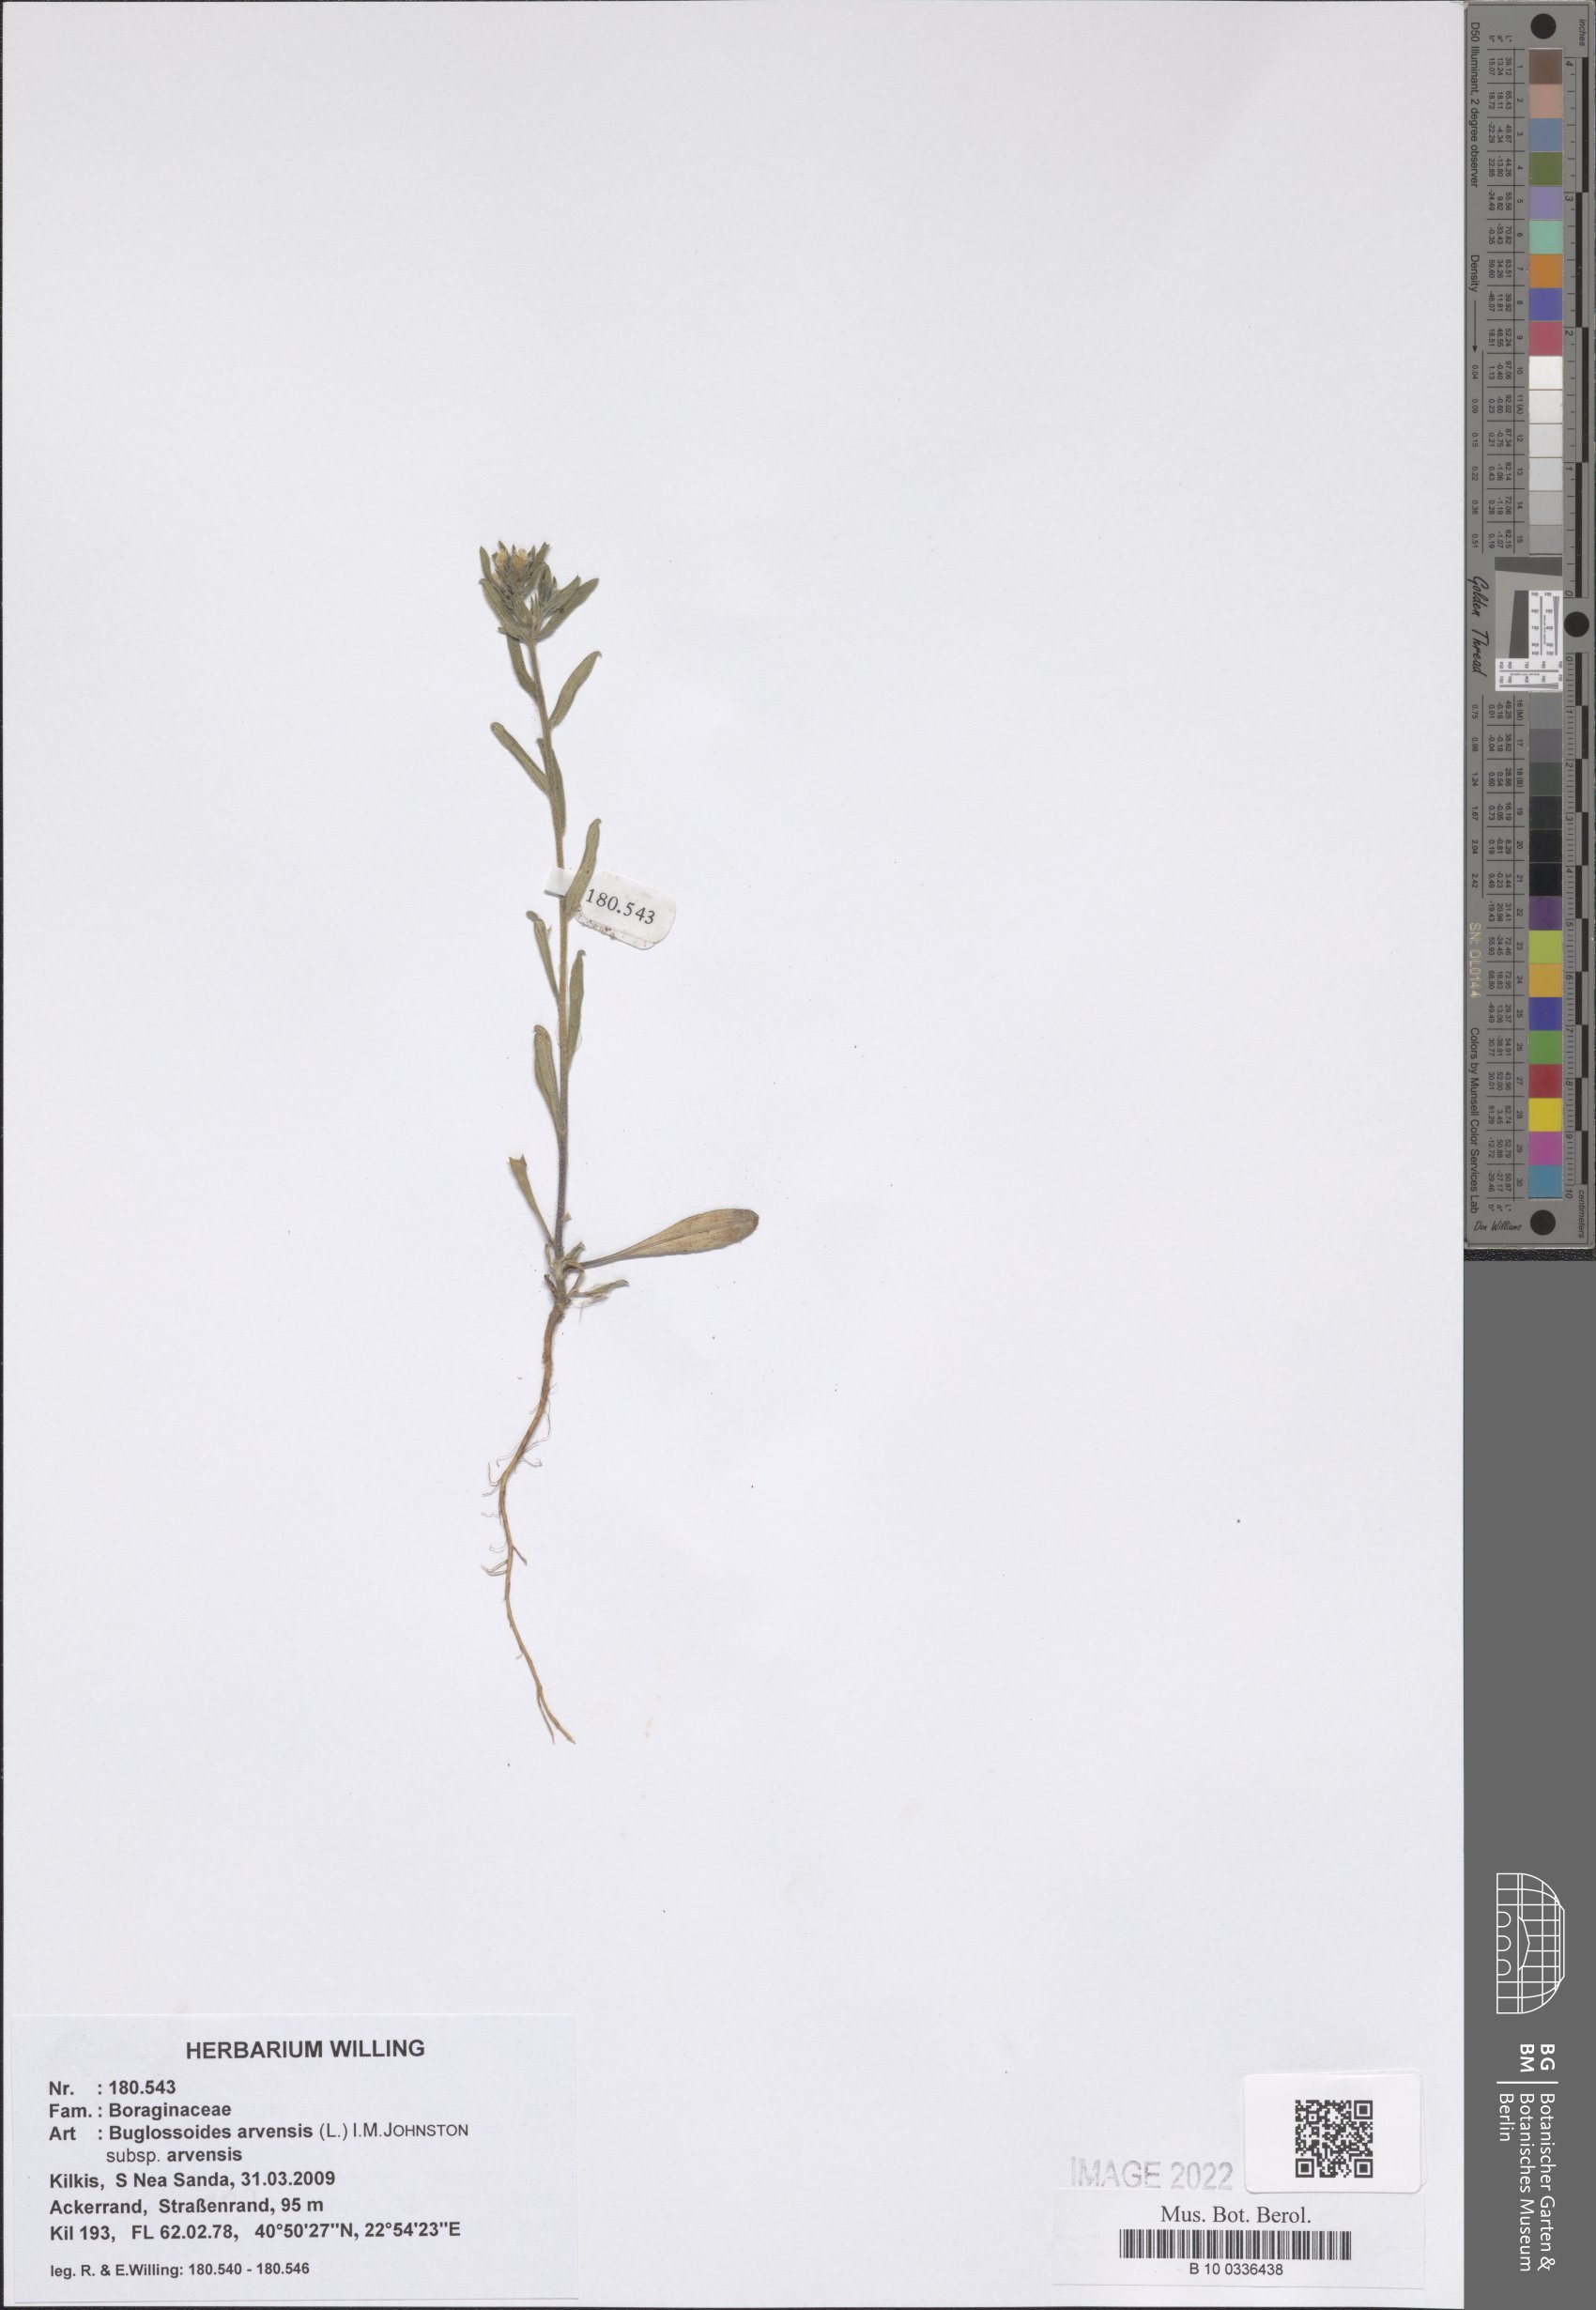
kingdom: Plantae
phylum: Tracheophyta
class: Magnoliopsida
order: Boraginales
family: Boraginaceae
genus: Buglossoides
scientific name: Buglossoides arvensis
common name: Corn gromwell
